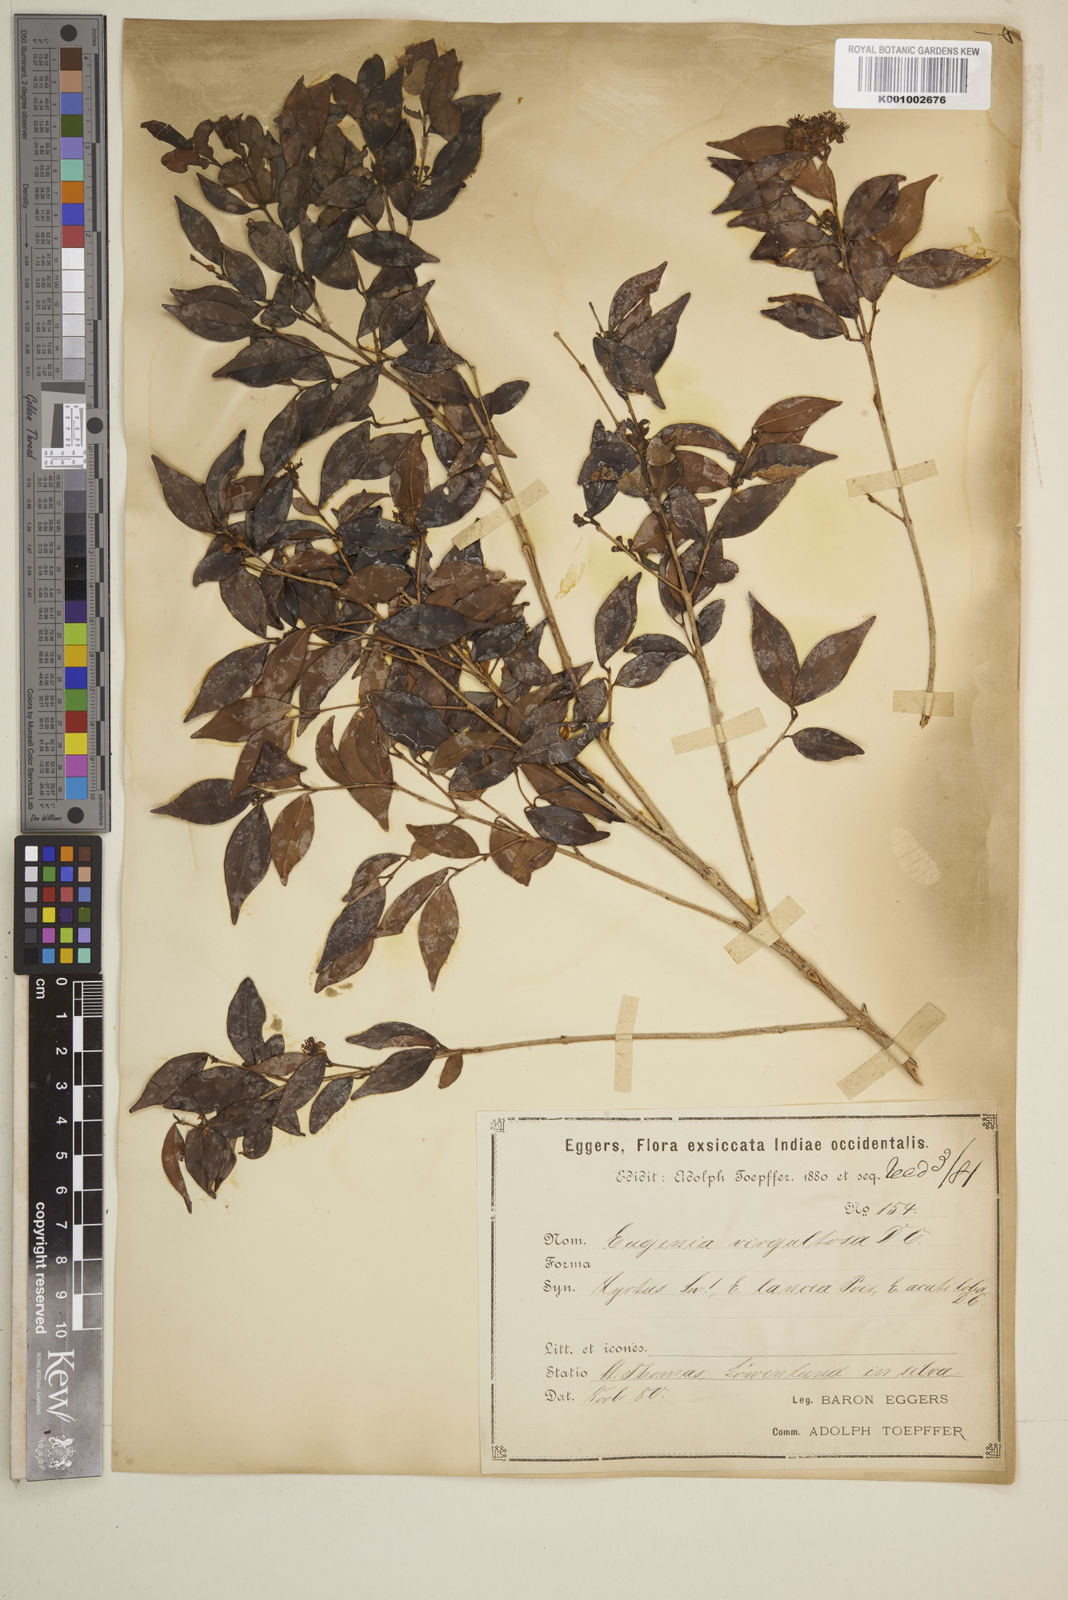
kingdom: Plantae
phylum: Tracheophyta
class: Magnoliopsida
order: Myrtales
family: Myrtaceae
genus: Eugenia
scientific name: Eugenia biflora
